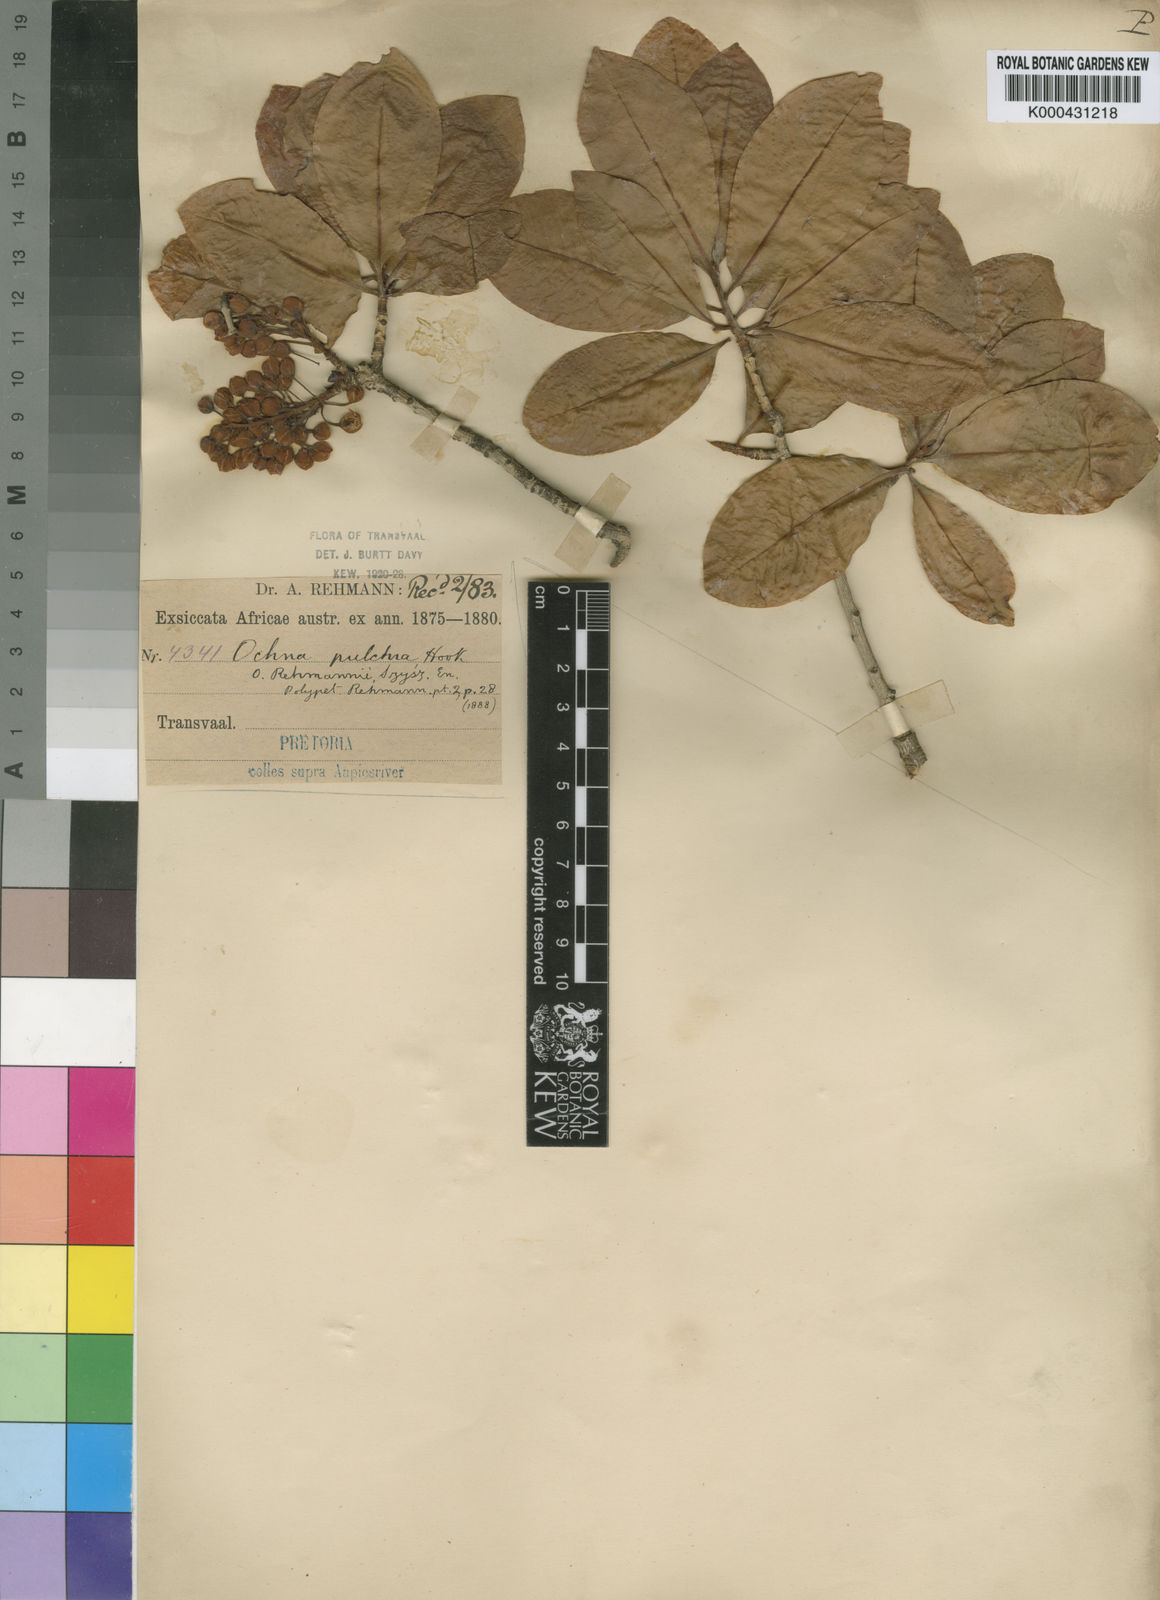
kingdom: Plantae
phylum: Tracheophyta
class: Magnoliopsida
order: Malpighiales
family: Ochnaceae
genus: Ochna
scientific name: Ochna pulchra
